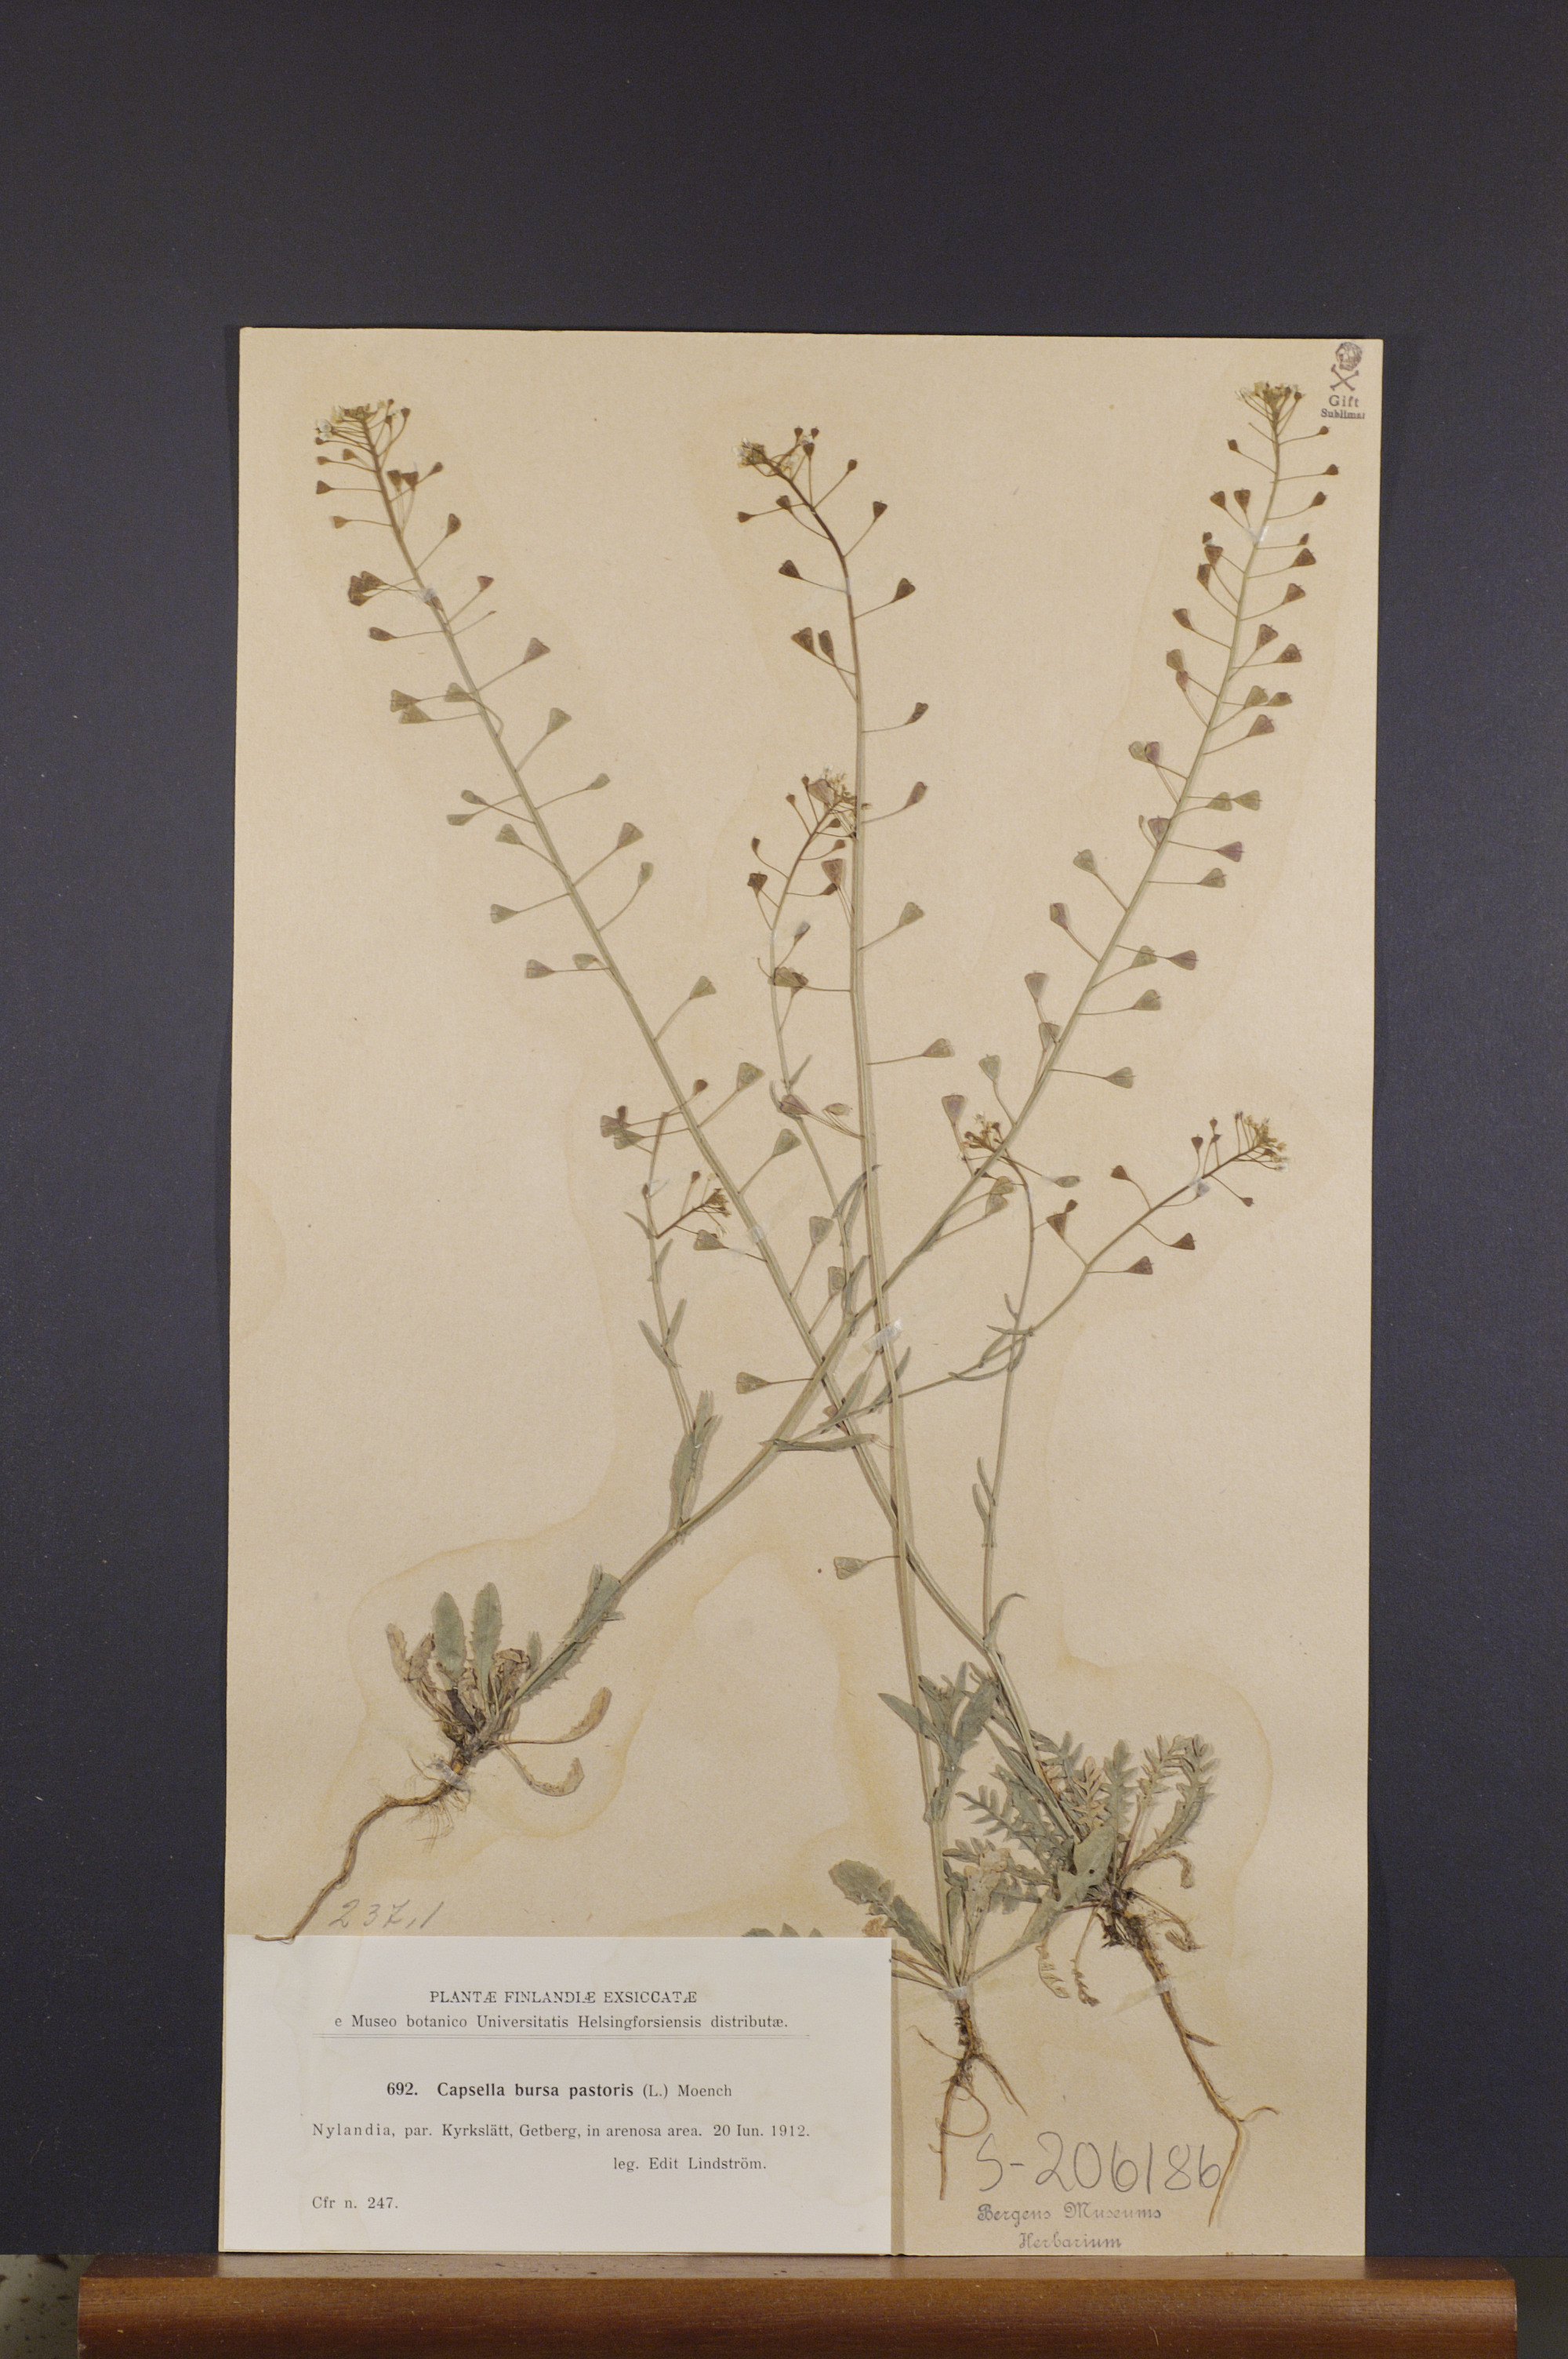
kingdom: Plantae
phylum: Tracheophyta
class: Magnoliopsida
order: Brassicales
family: Brassicaceae
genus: Capsella
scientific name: Capsella bursa-pastoris
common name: Shepherd's purse
